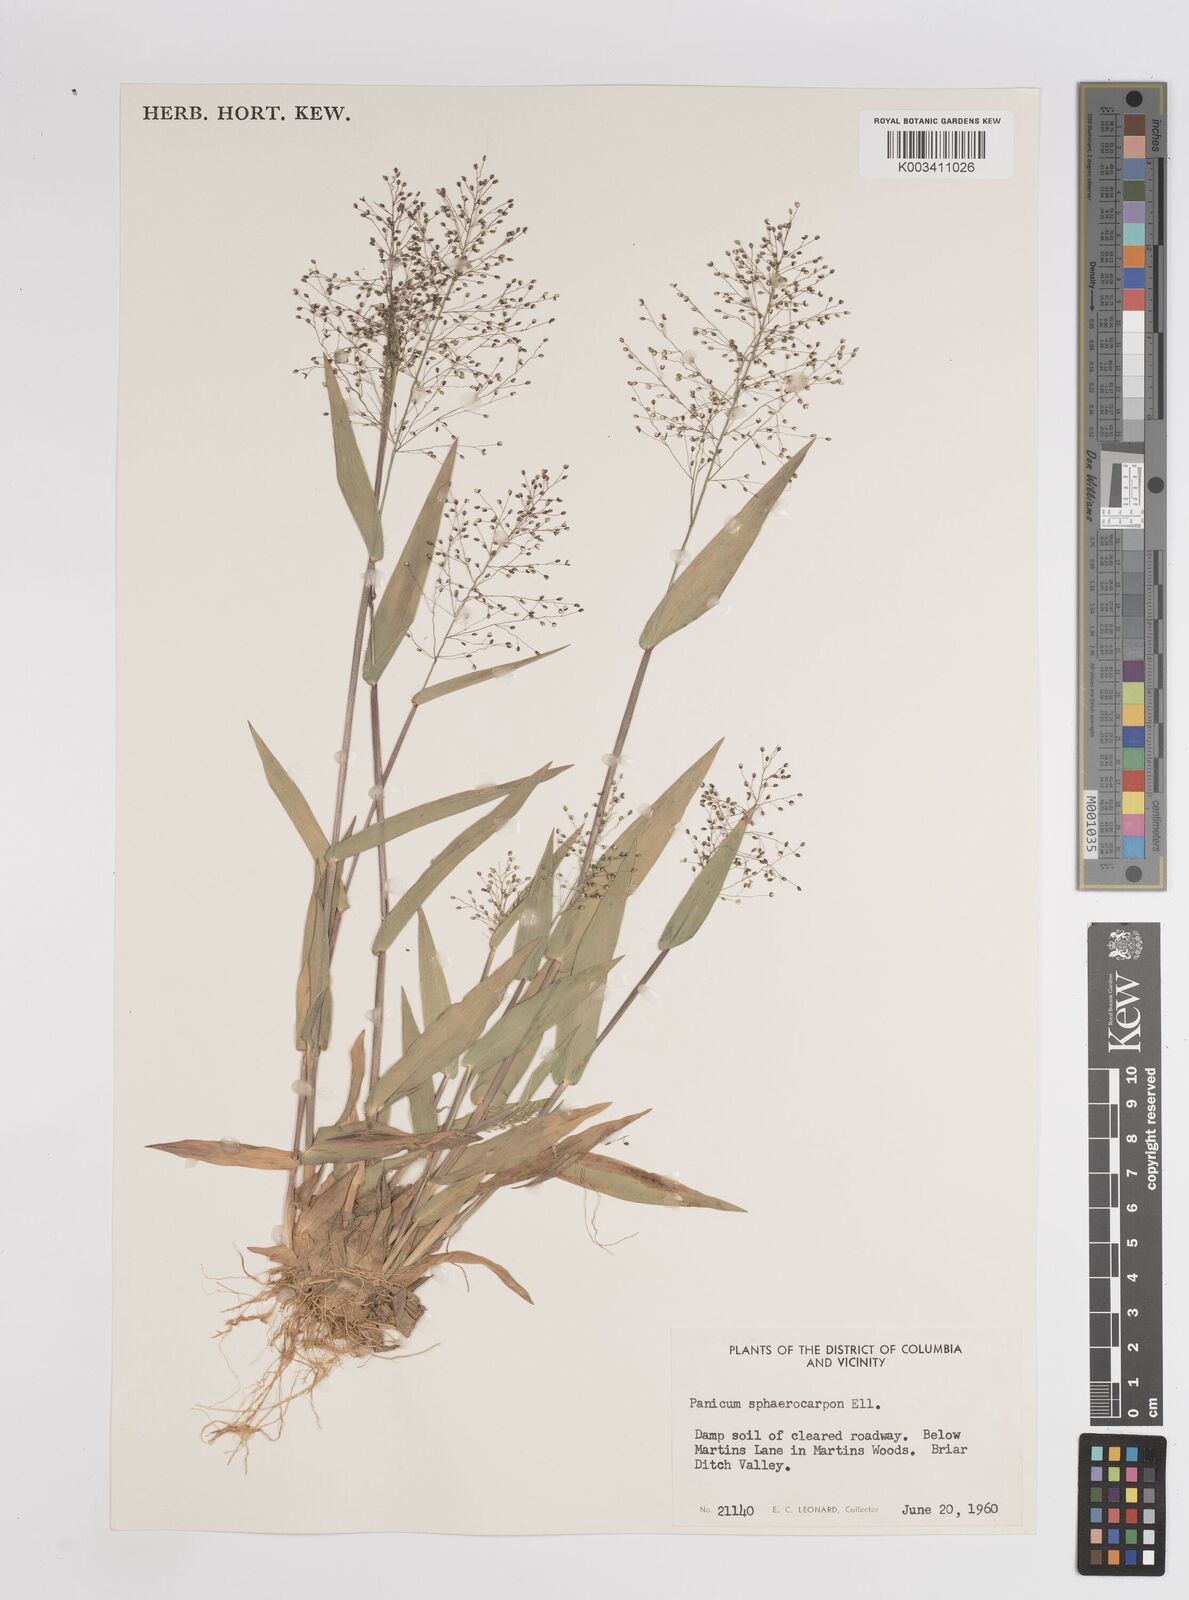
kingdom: Plantae
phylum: Tracheophyta
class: Liliopsida
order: Poales
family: Poaceae
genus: Setaria
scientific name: Setaria tenax
